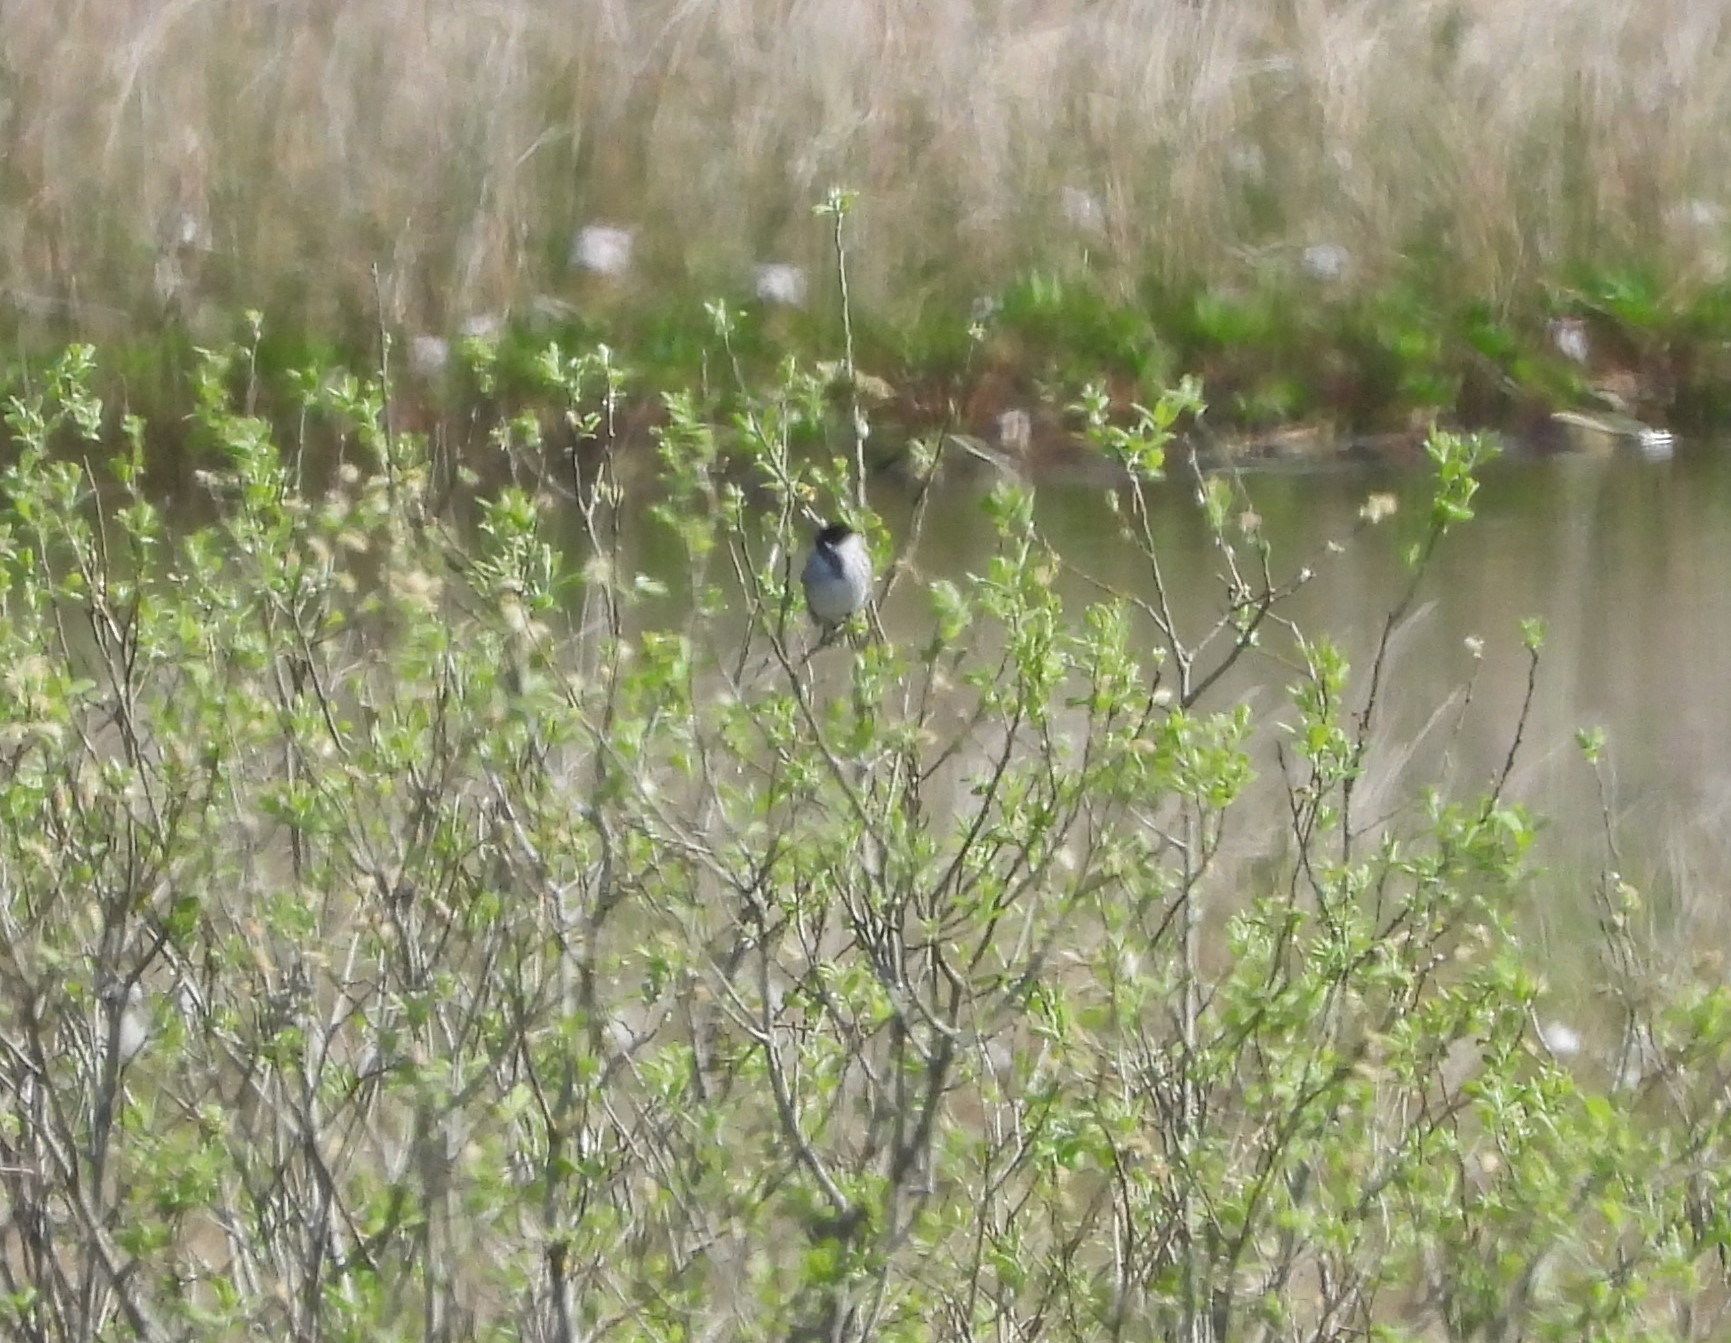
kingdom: Animalia
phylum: Chordata
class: Aves
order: Passeriformes
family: Emberizidae
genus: Emberiza
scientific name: Emberiza schoeniclus
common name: Rørspurv
